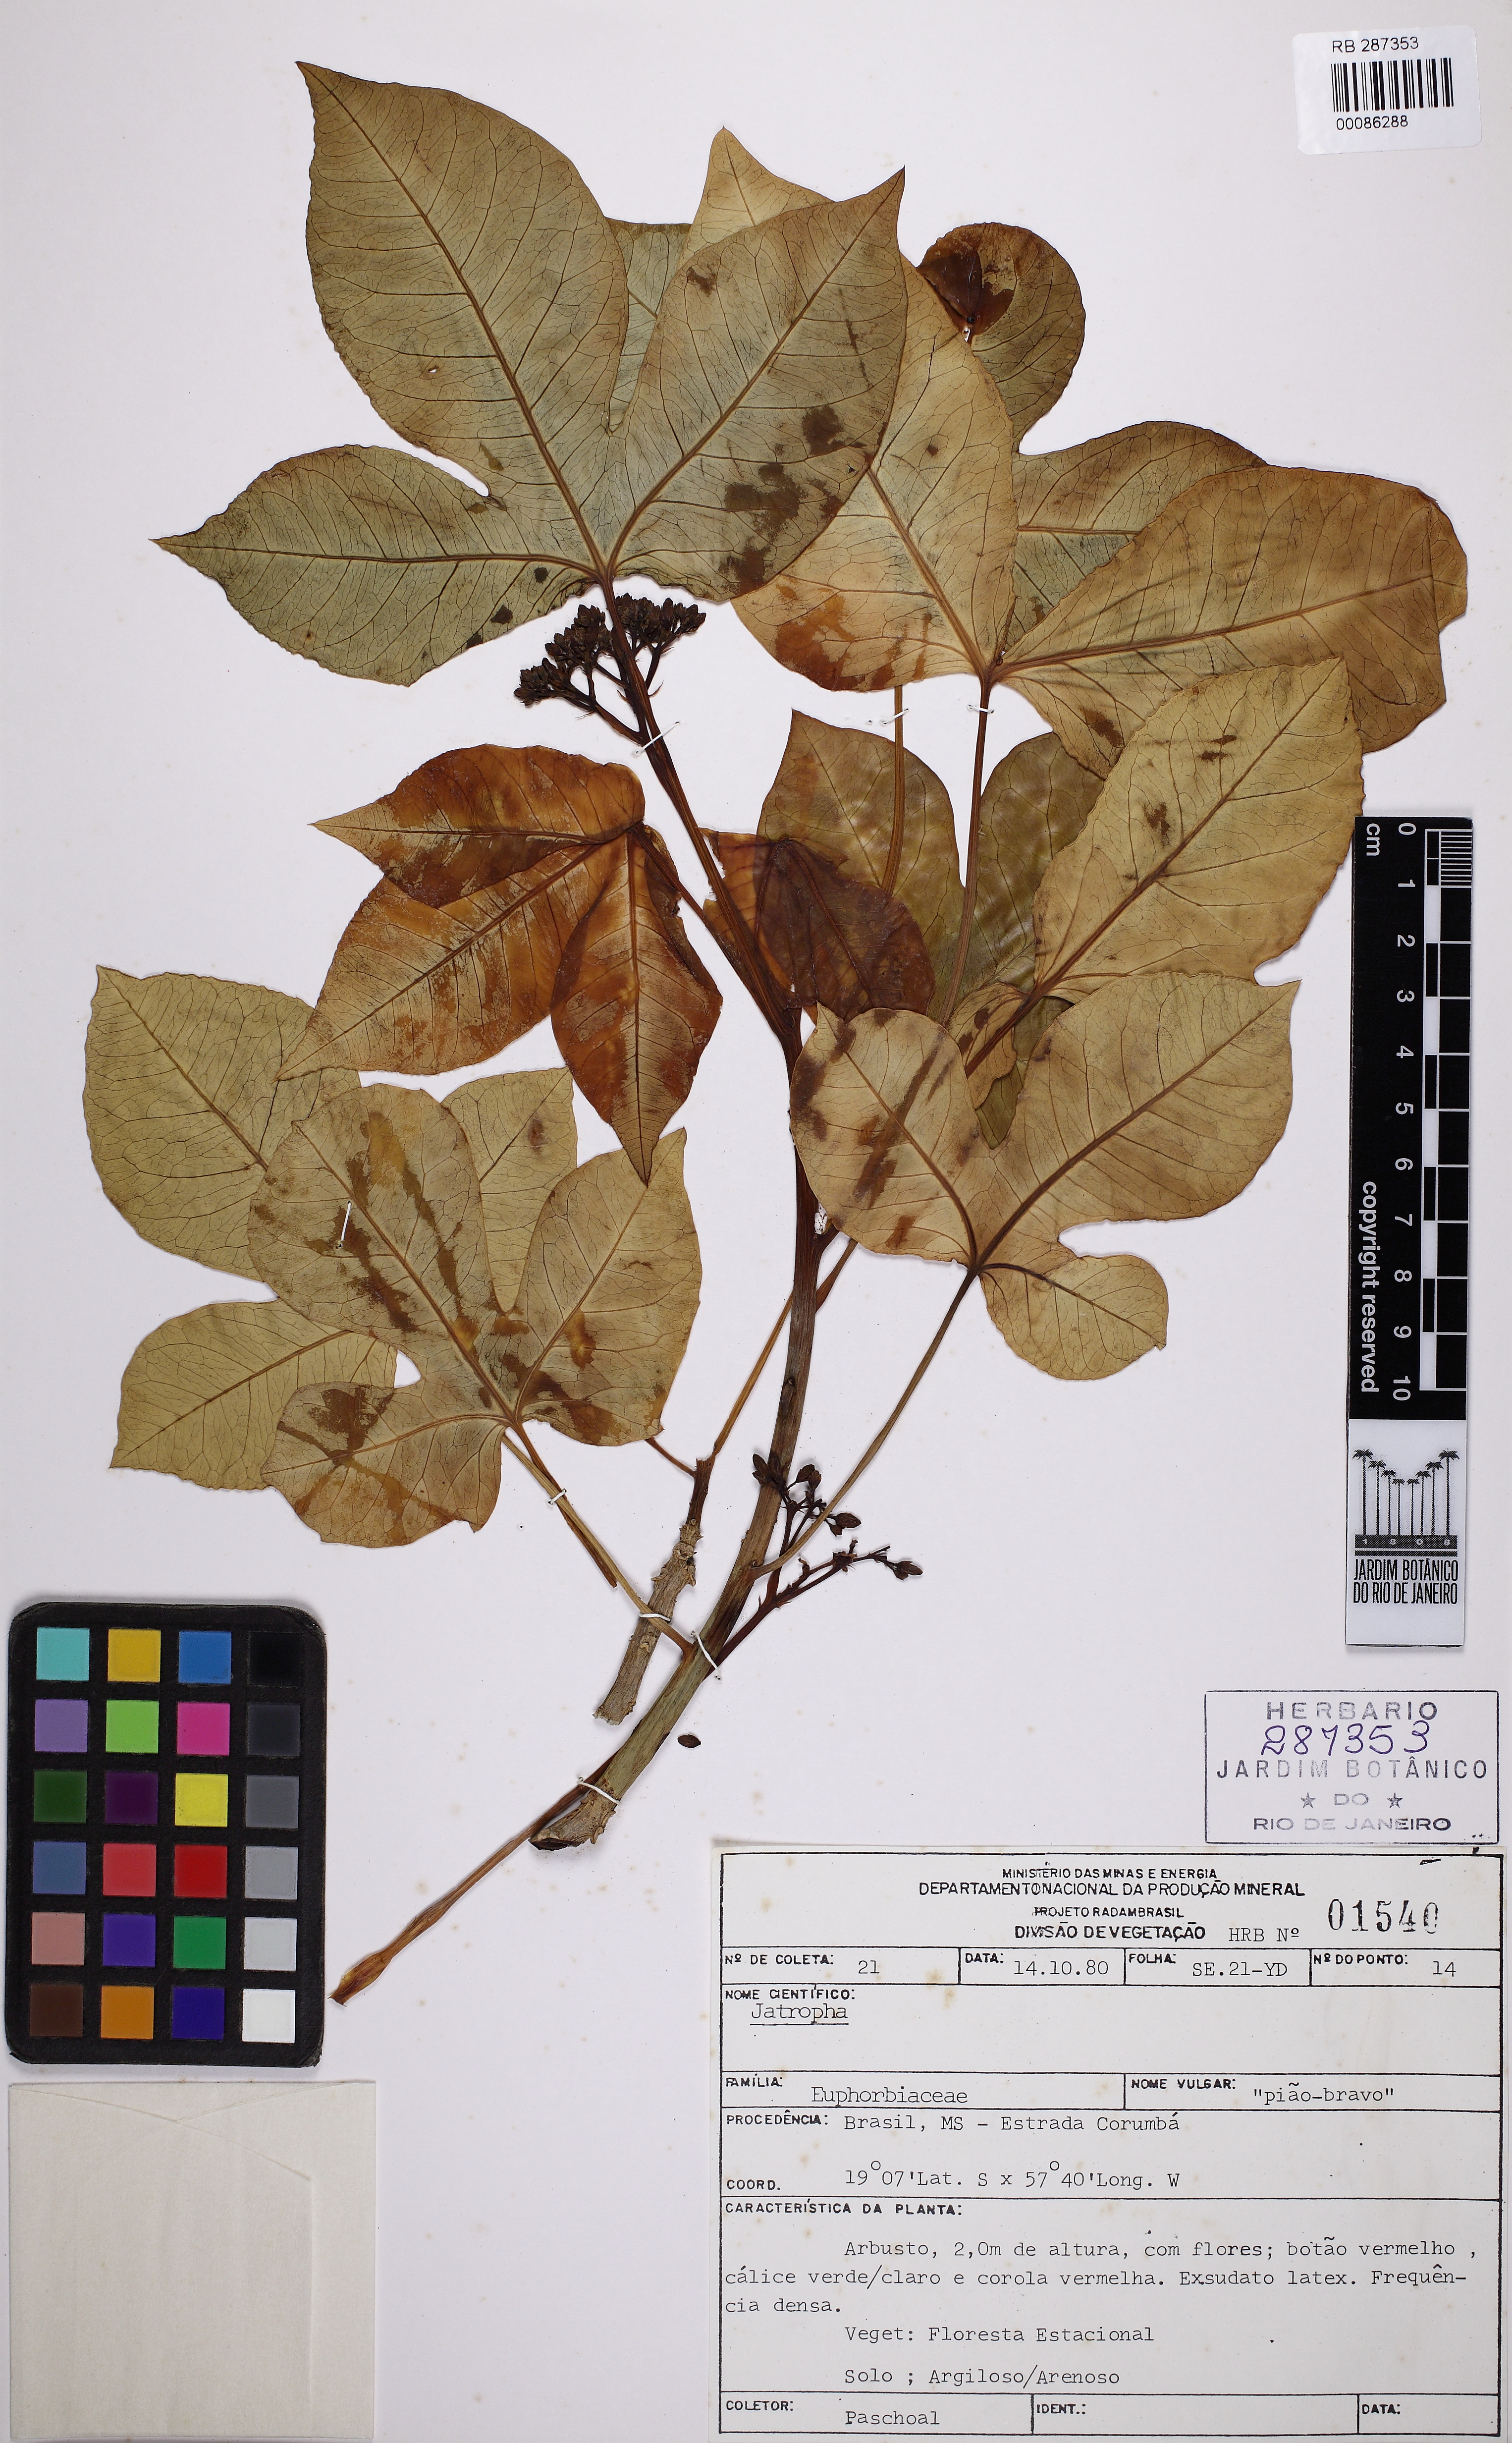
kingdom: Plantae
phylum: Tracheophyta
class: Magnoliopsida
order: Malpighiales
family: Euphorbiaceae
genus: Jatropha
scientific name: Jatropha weddeliana
